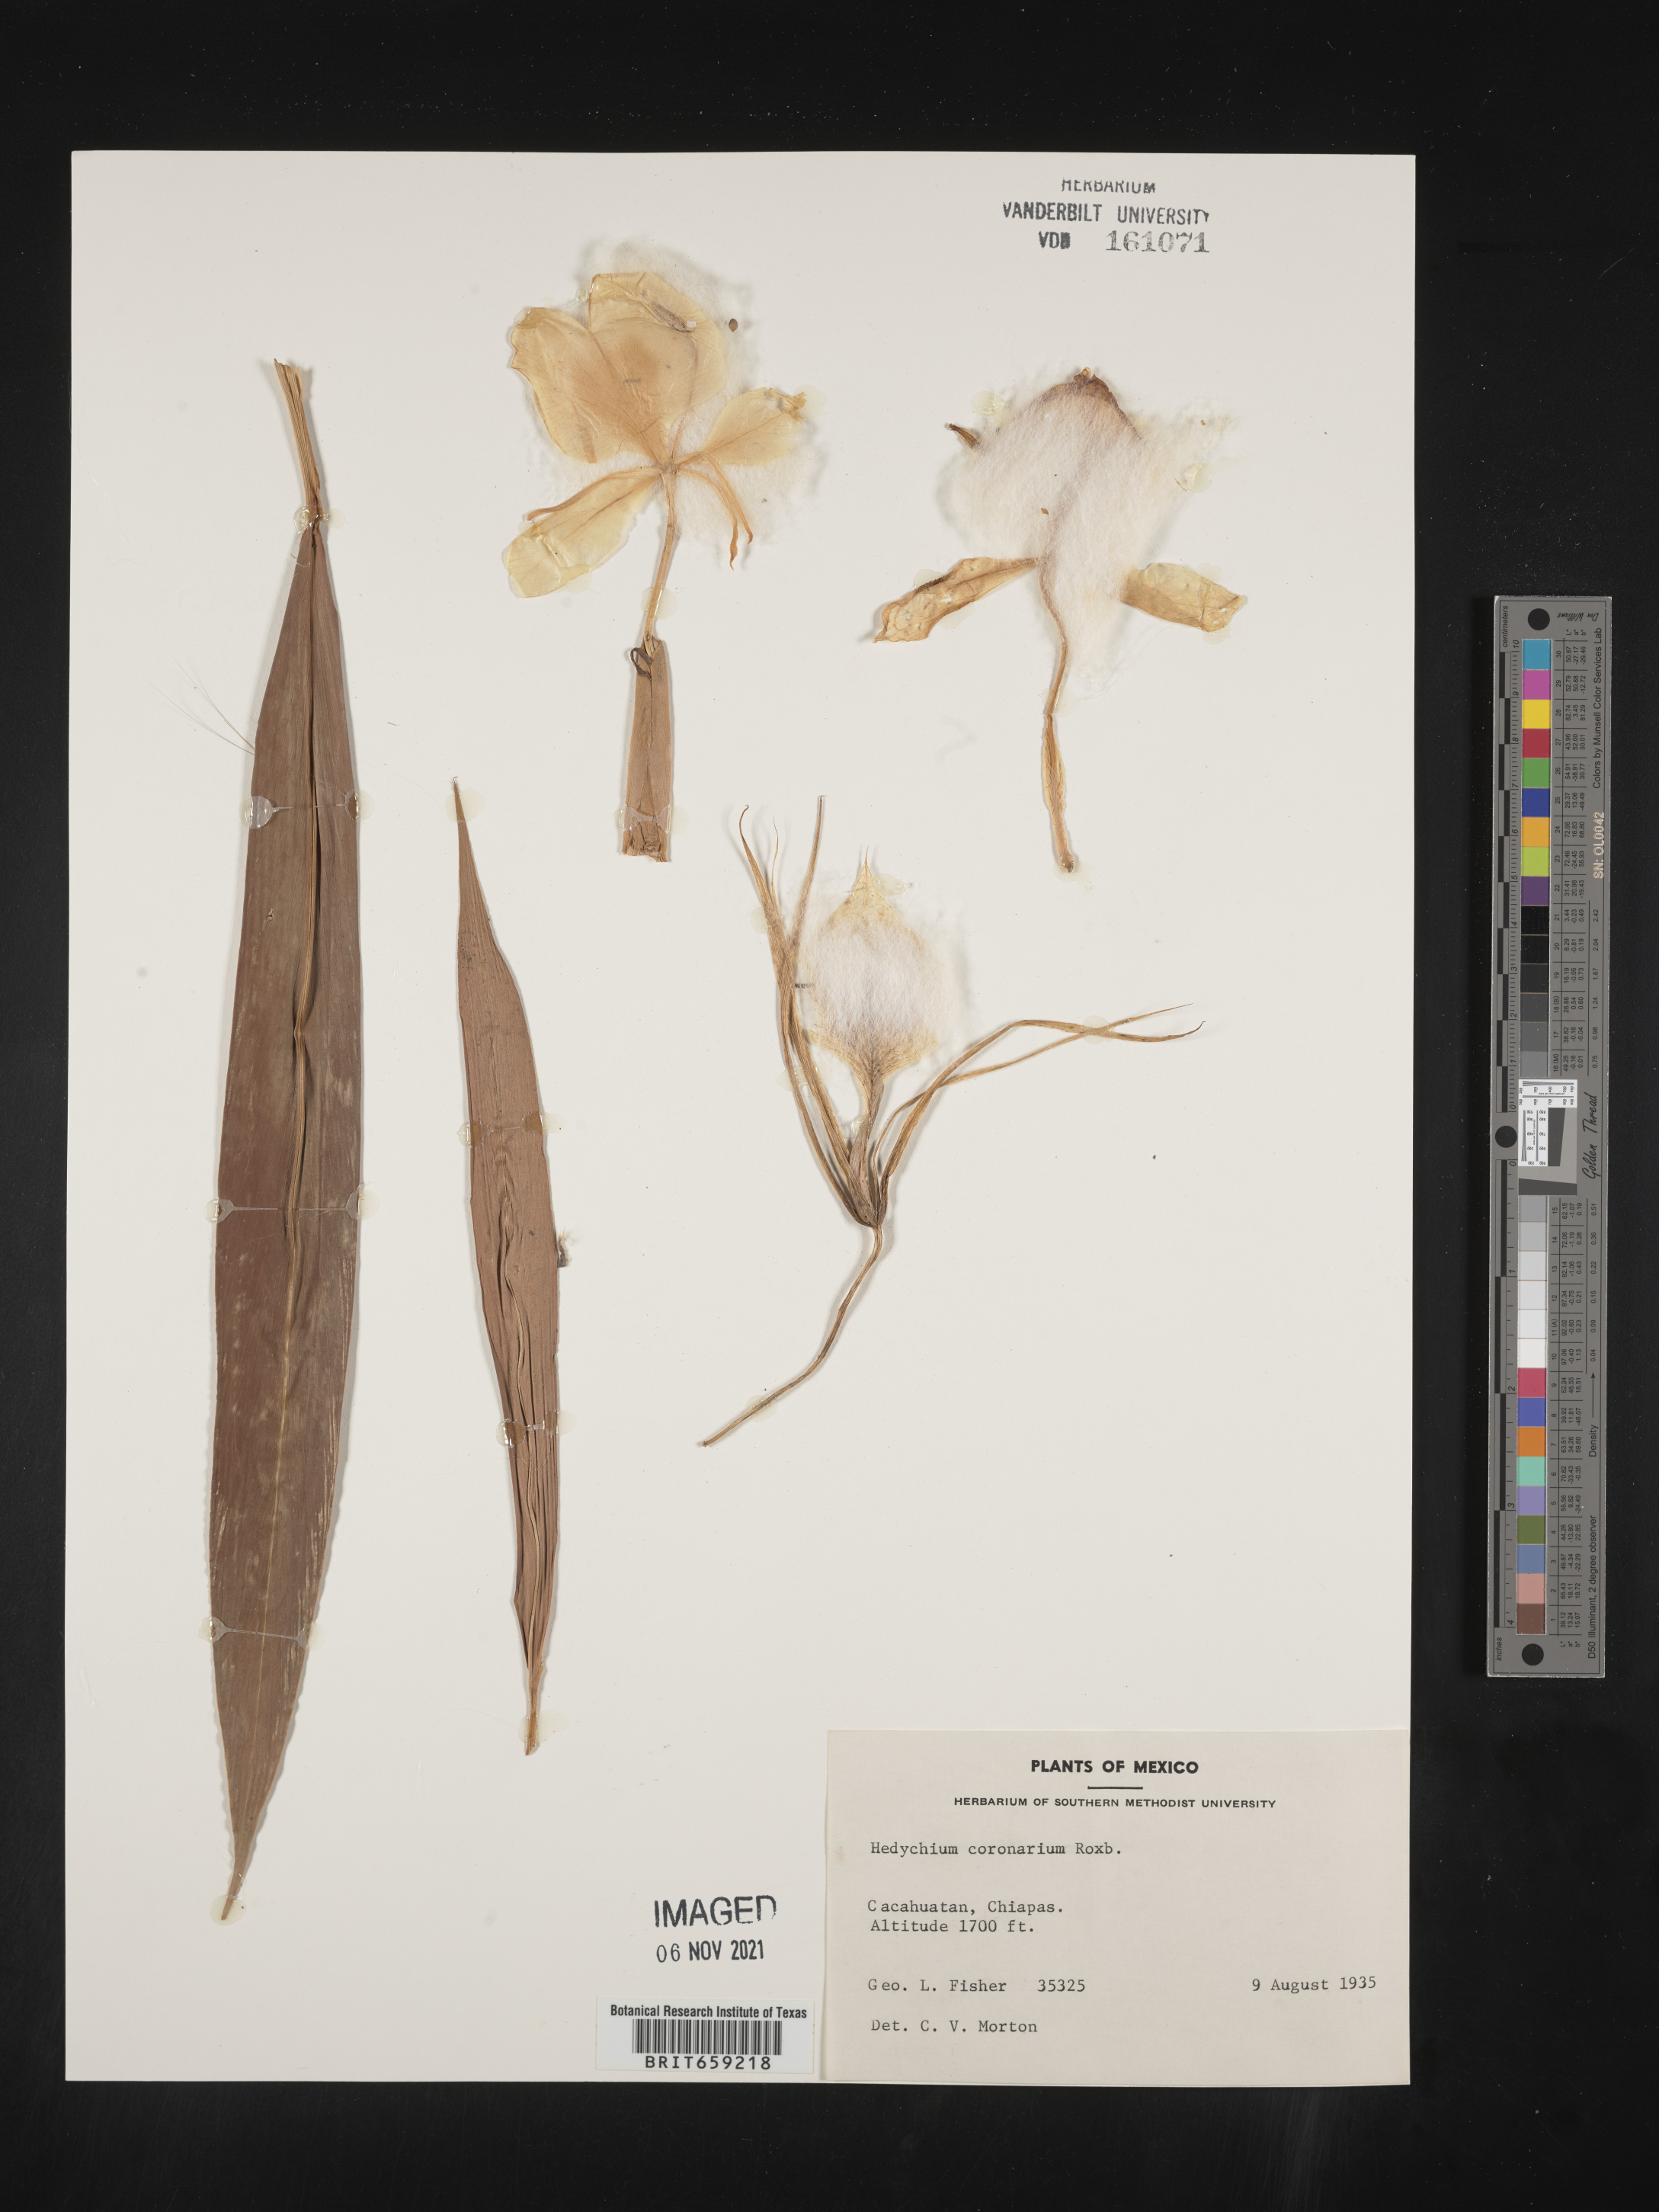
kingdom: Plantae
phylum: Tracheophyta
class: Liliopsida
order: Zingiberales
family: Zingiberaceae
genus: Hedychium
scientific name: Hedychium
